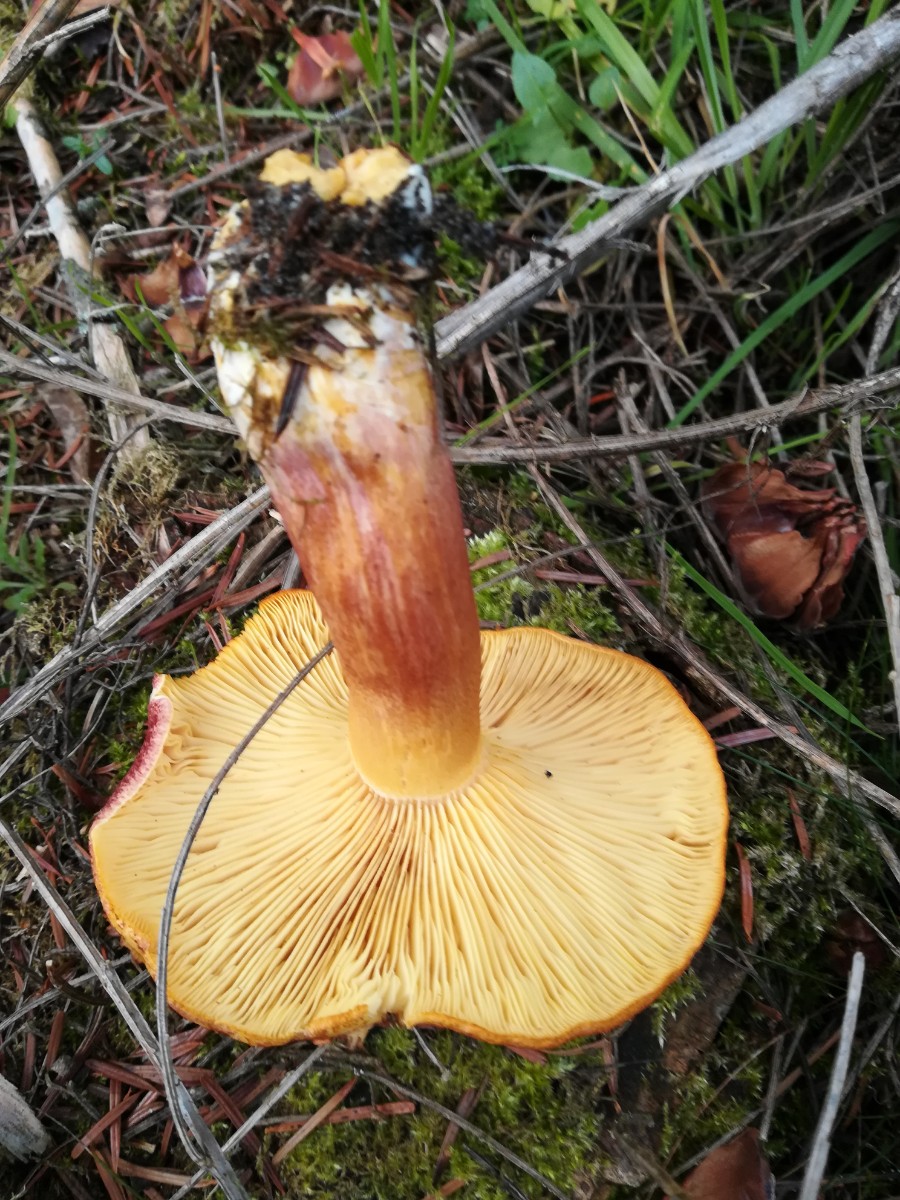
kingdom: Fungi
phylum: Basidiomycota
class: Agaricomycetes
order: Agaricales
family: Tricholomataceae
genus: Tricholomopsis
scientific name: Tricholomopsis rutilans
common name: purpur-væbnerhat
